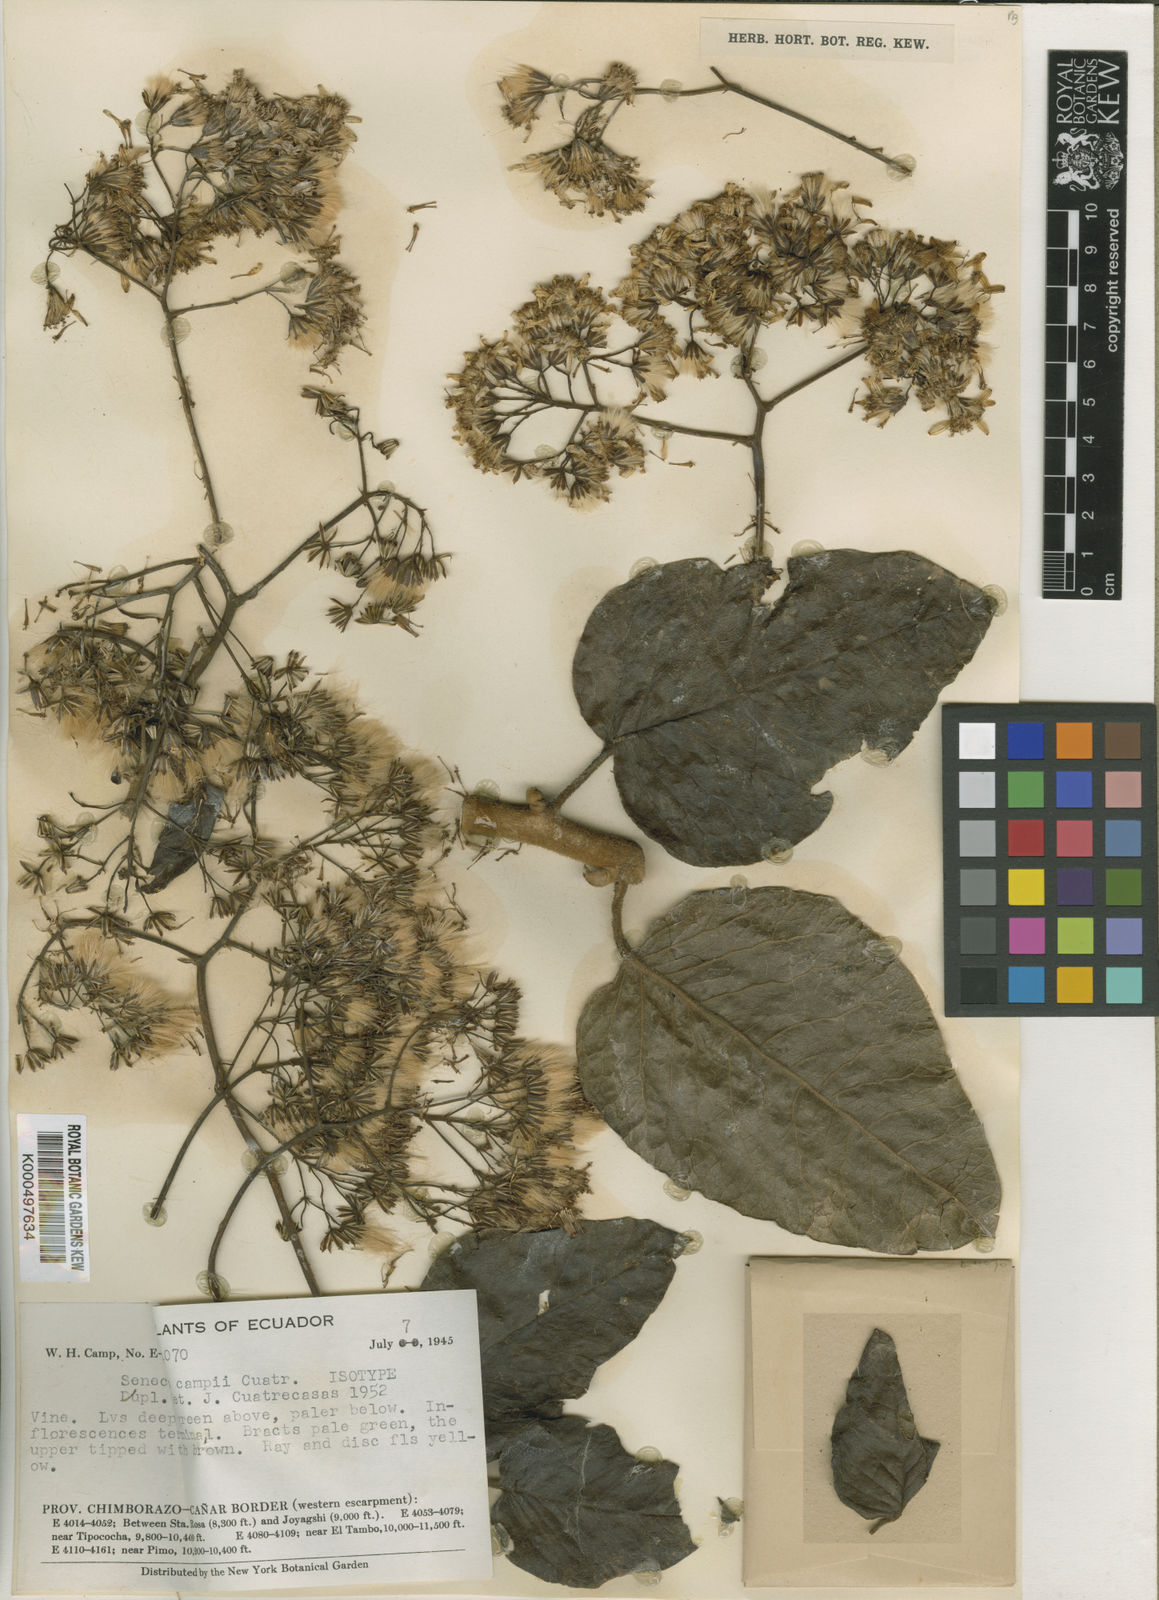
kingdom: Plantae
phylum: Tracheophyta
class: Magnoliopsida
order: Asterales
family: Asteraceae
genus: Pentacalia
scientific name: Pentacalia campii
